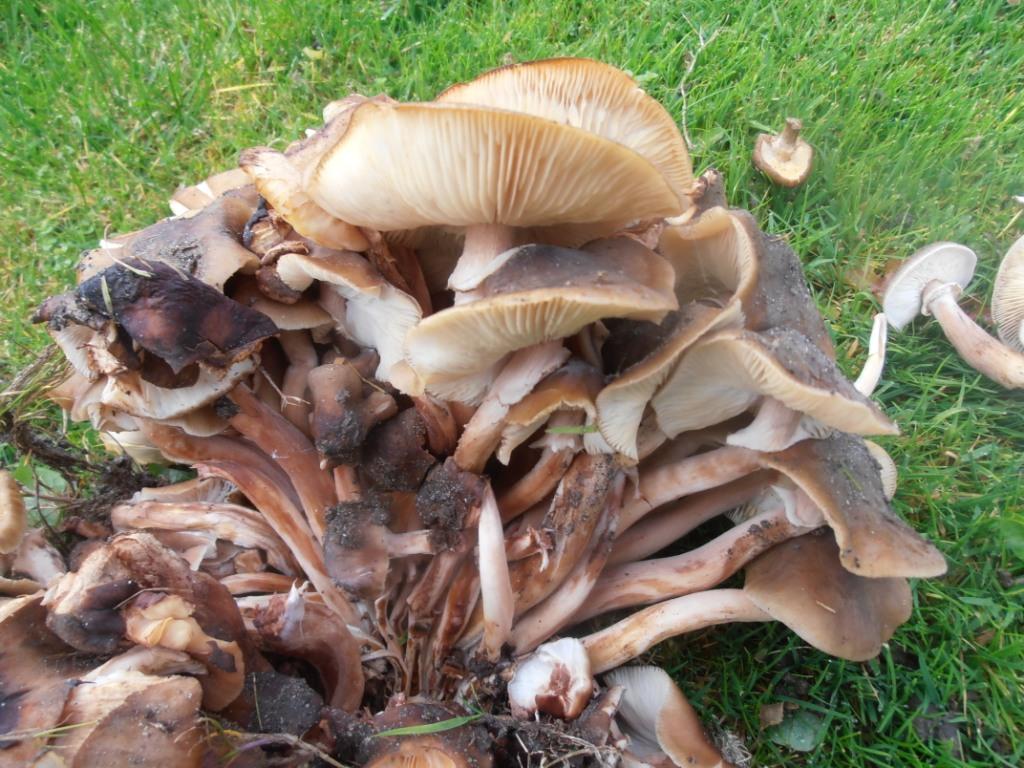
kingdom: Fungi
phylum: Basidiomycota
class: Agaricomycetes
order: Agaricales
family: Physalacriaceae
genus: Armillaria
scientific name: Armillaria mellea
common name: ægte honningsvamp
